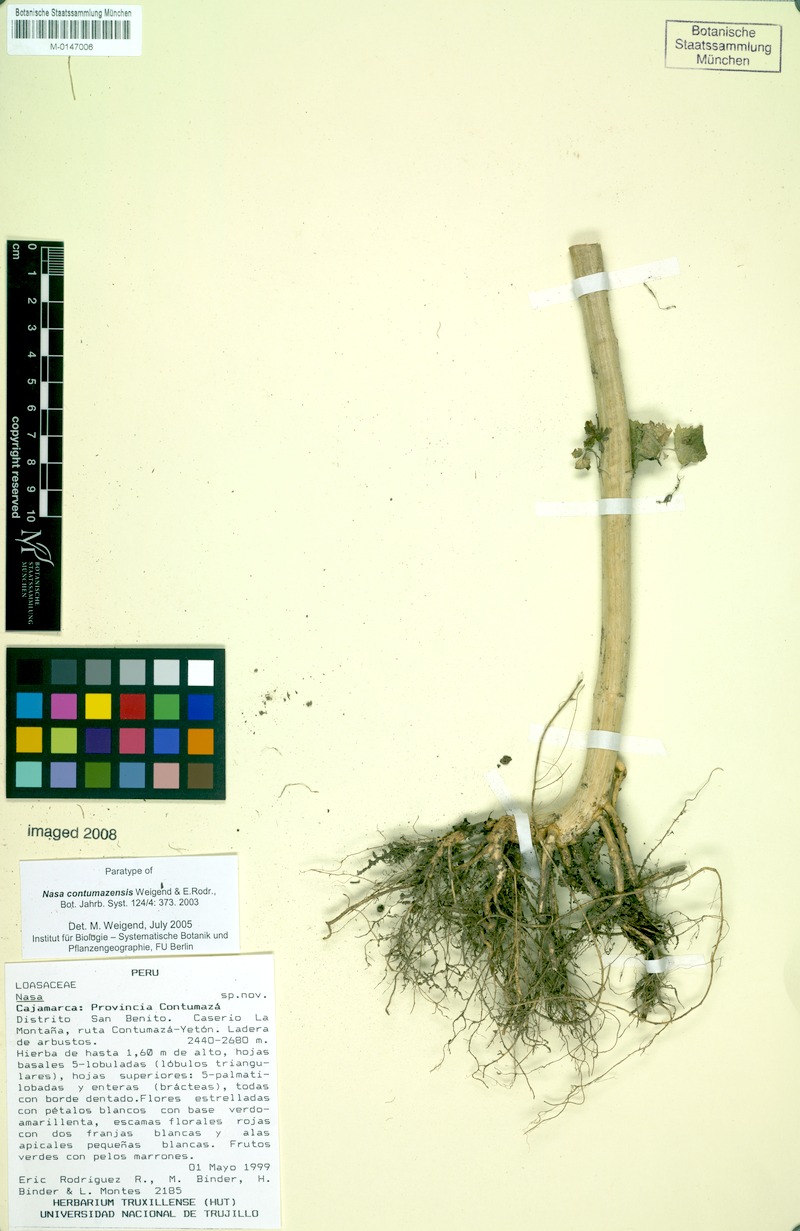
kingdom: Plantae
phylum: Tracheophyta
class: Magnoliopsida
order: Cornales
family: Loasaceae
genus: Nasa
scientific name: Nasa contumazensis
